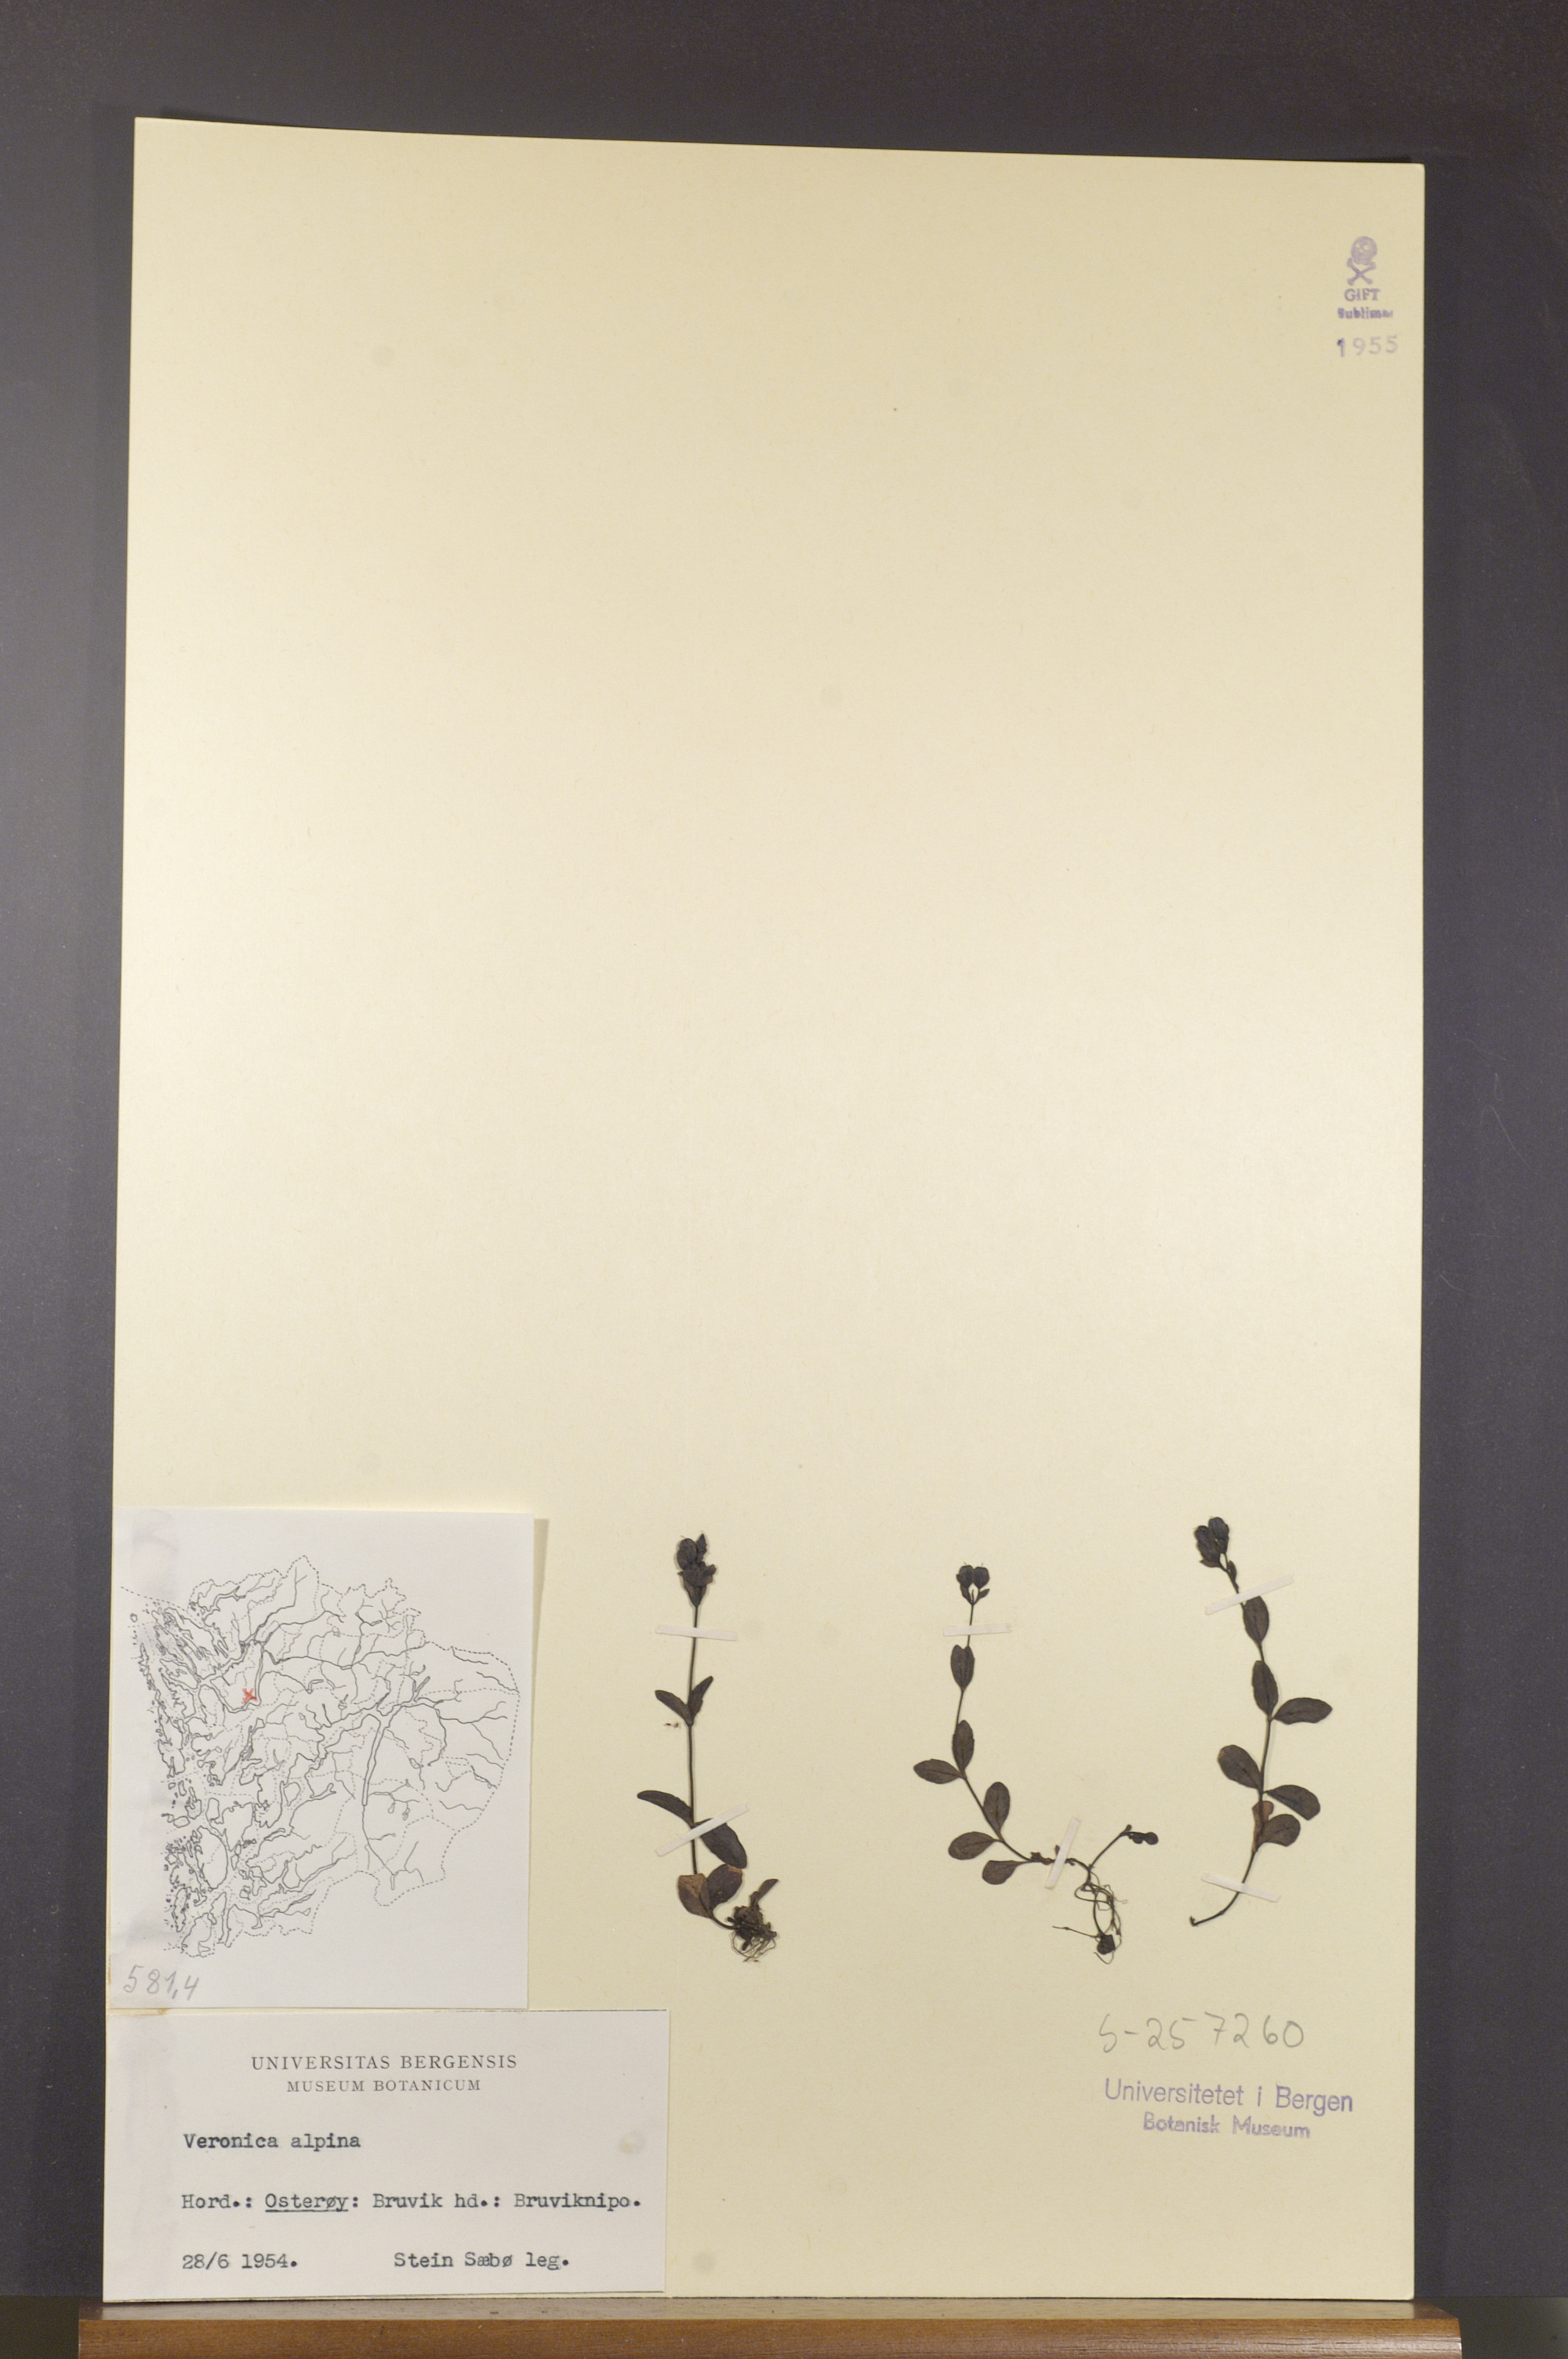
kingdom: Plantae
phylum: Tracheophyta
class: Magnoliopsida
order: Lamiales
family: Plantaginaceae
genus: Veronica
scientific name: Veronica alpina
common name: Alpine speedwell
